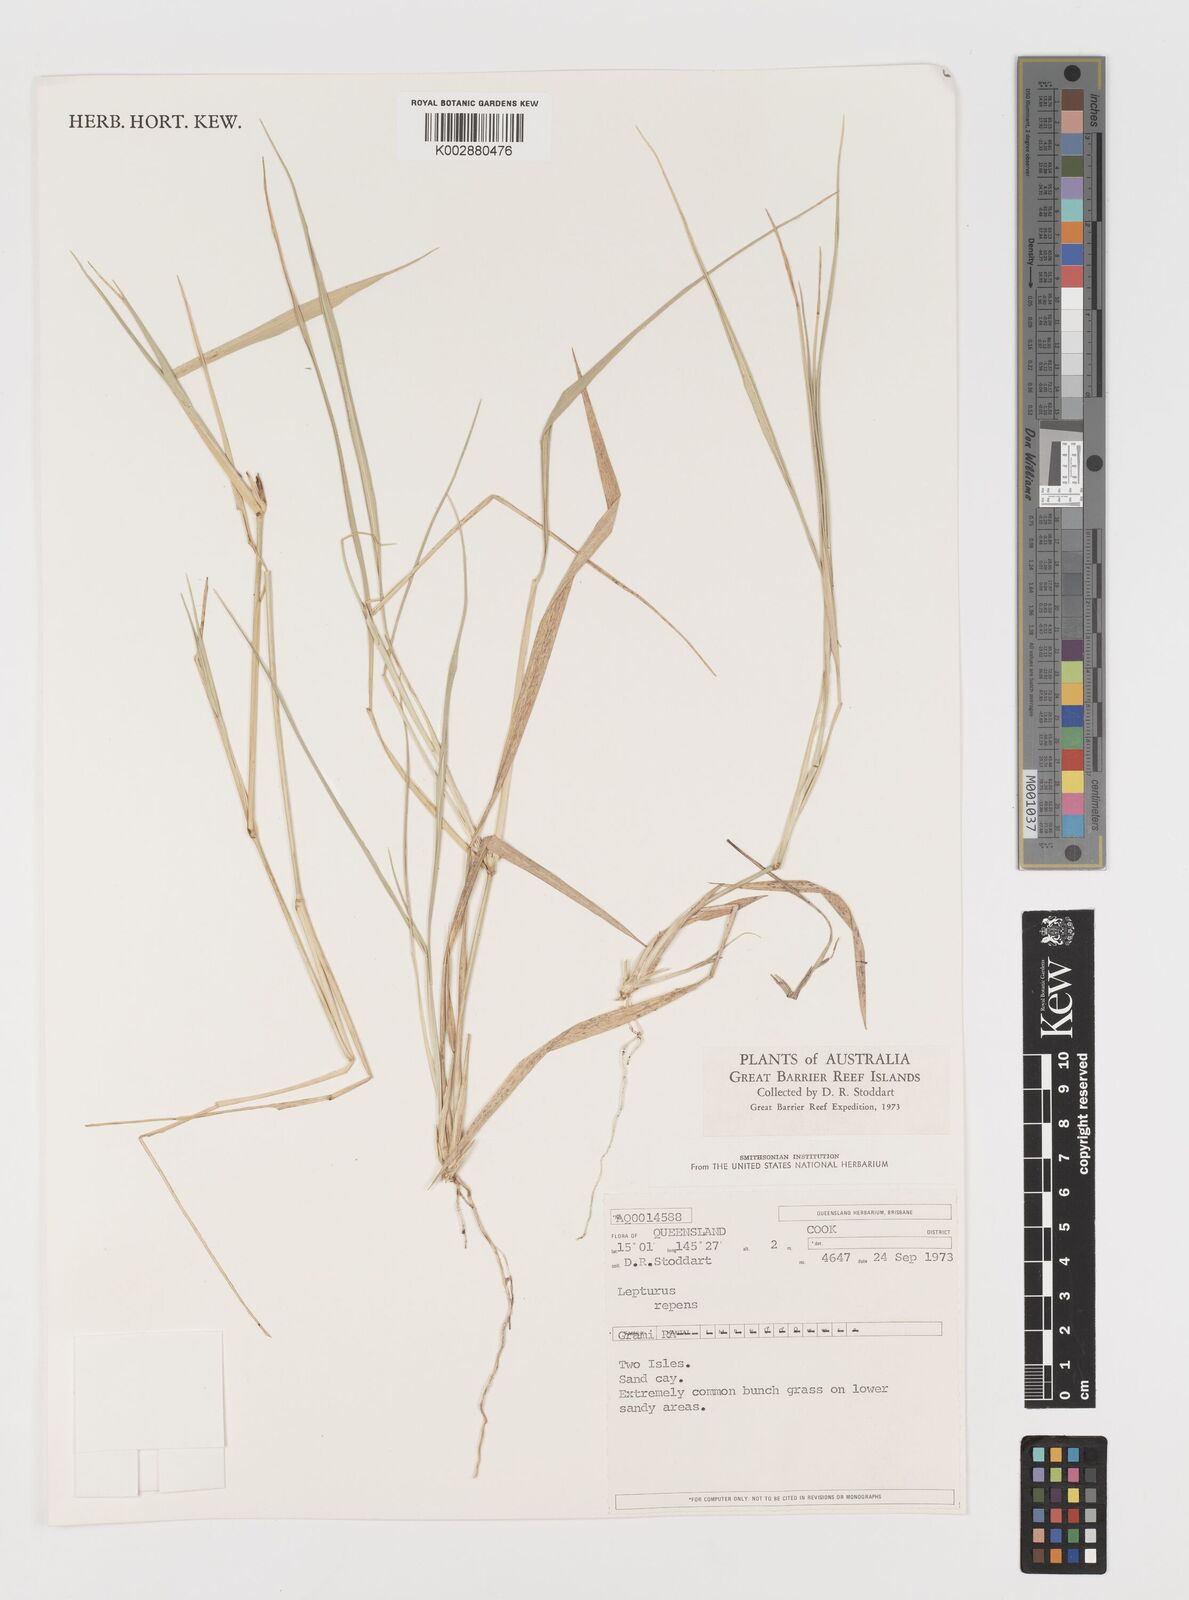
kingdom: Plantae
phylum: Tracheophyta
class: Liliopsida
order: Poales
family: Poaceae
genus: Lepturus
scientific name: Lepturus repens
